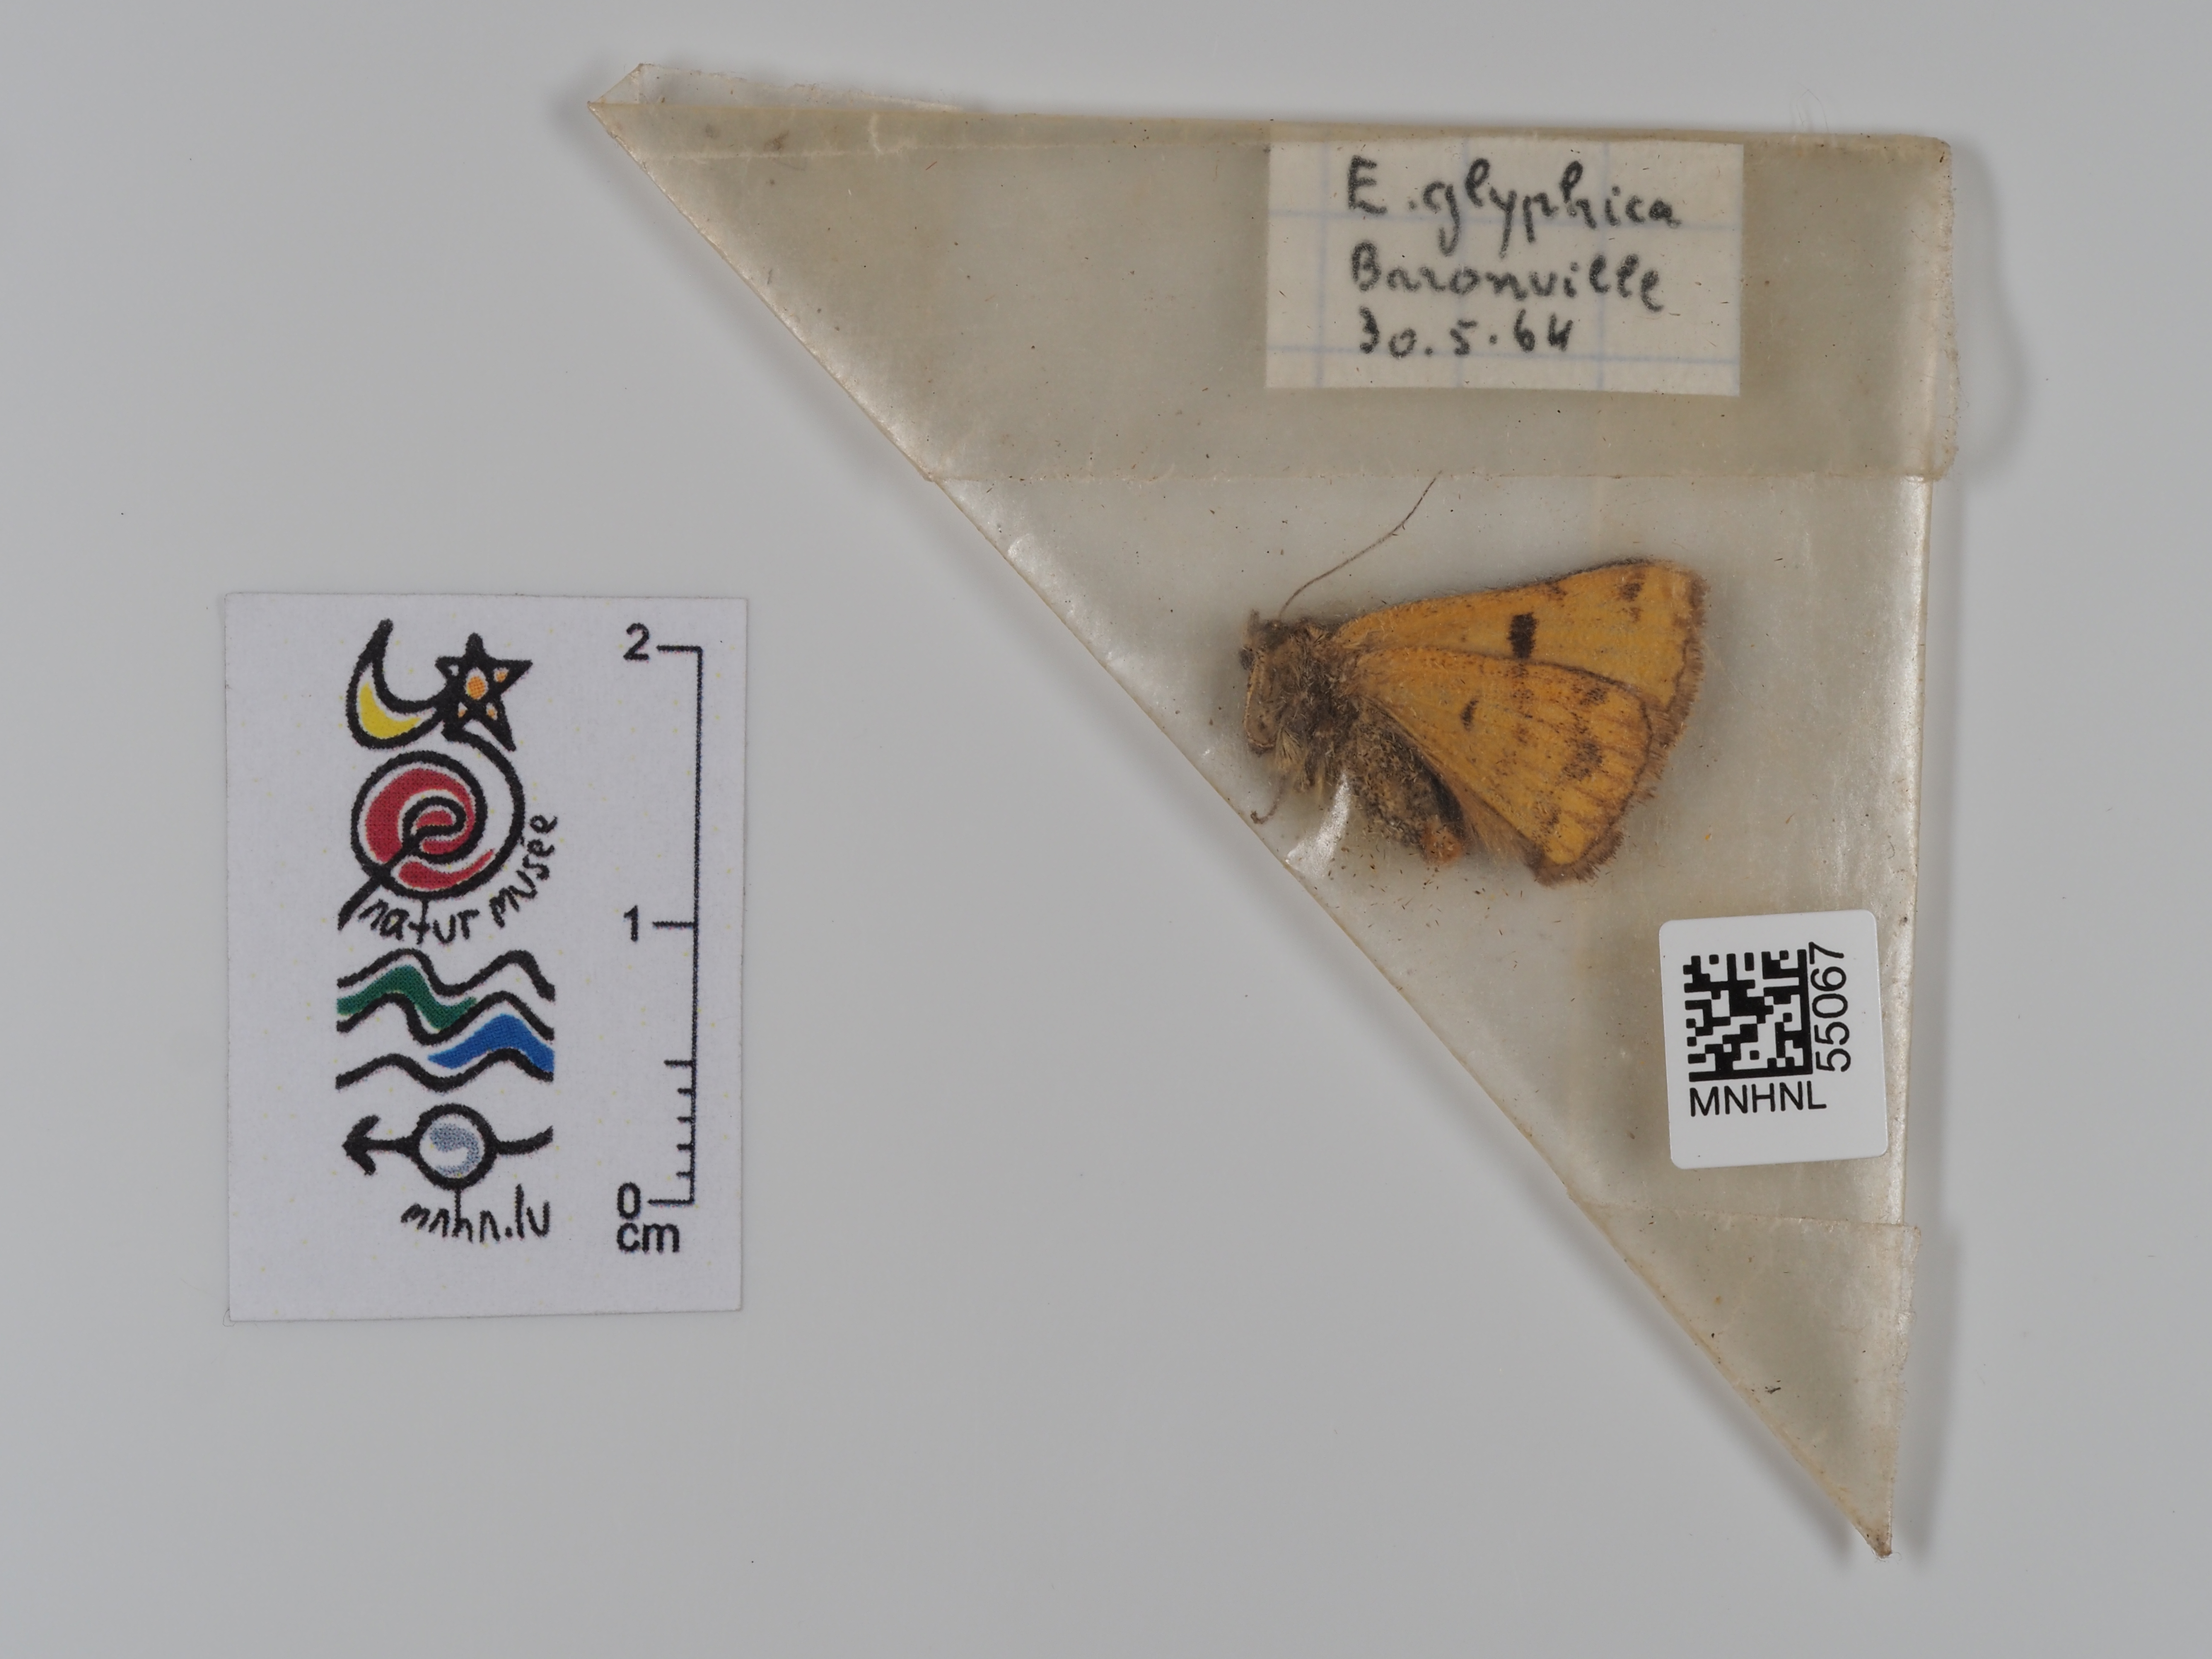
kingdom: Animalia
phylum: Arthropoda
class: Insecta
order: Lepidoptera
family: Erebidae
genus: Euclidia
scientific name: Euclidia glyphica
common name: Burnet companion
